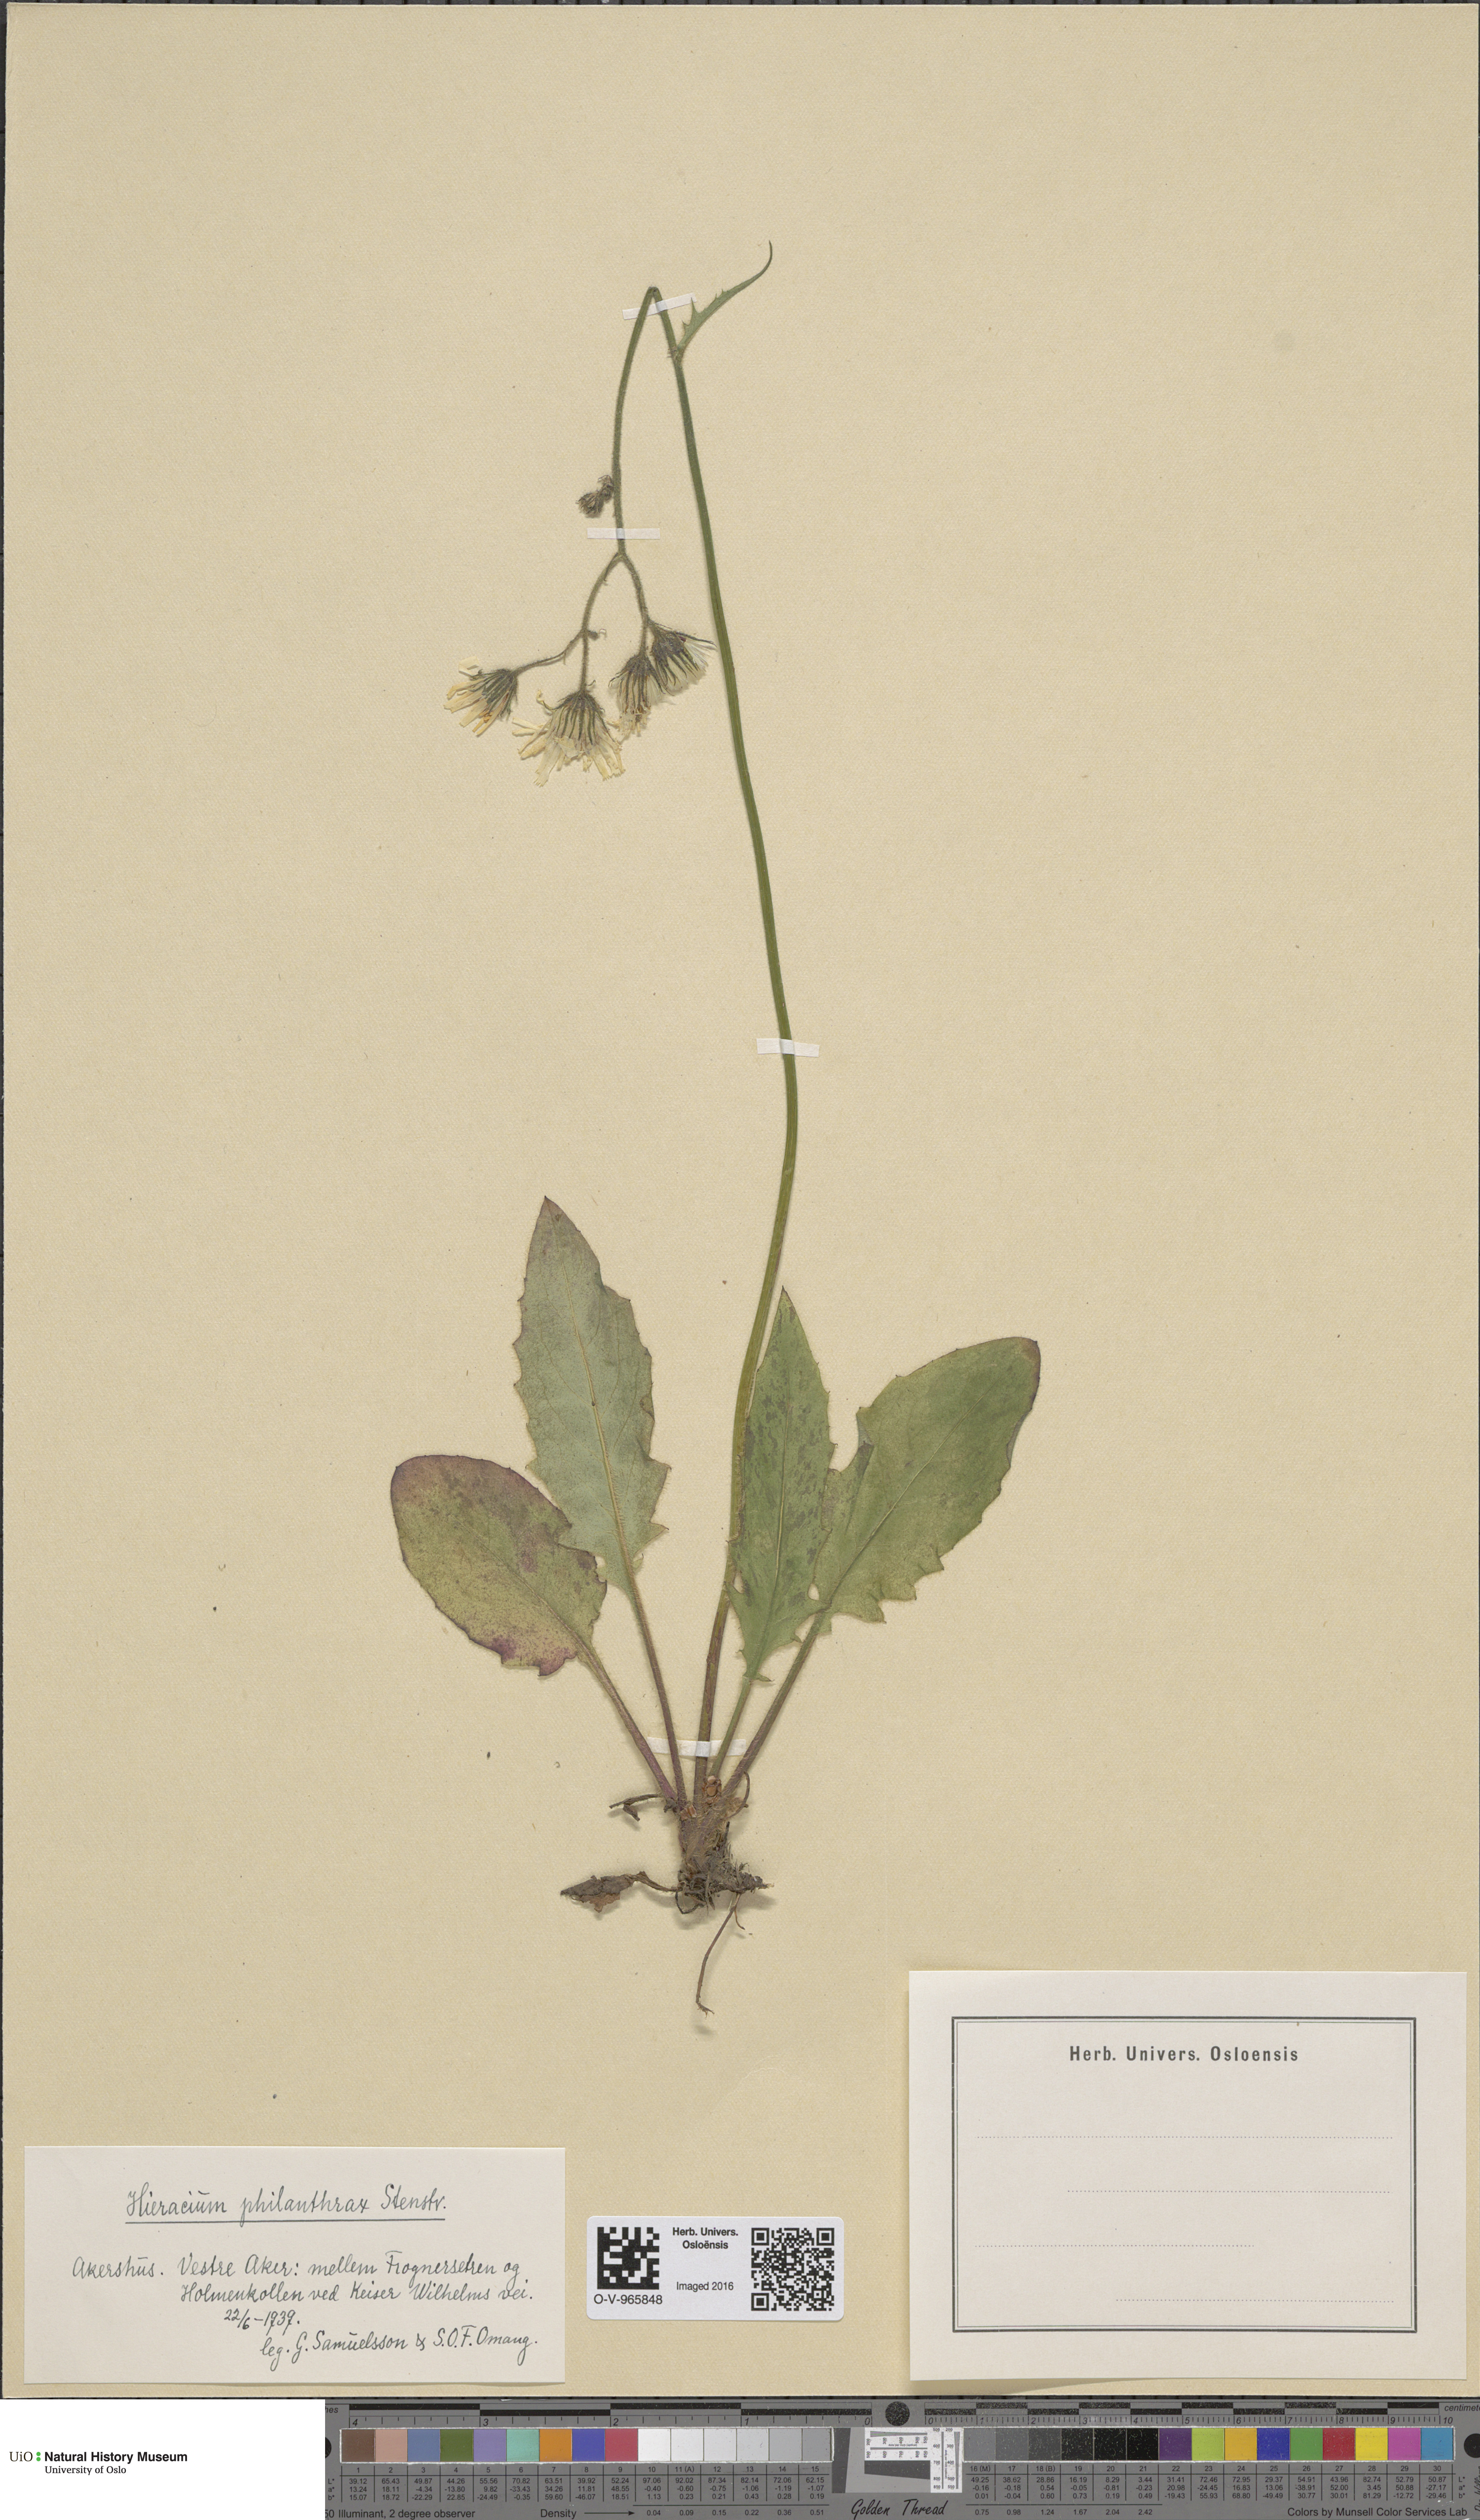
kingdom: Plantae
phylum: Tracheophyta
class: Magnoliopsida
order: Asterales
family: Asteraceae
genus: Hieracium
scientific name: Hieracium philanthrax
